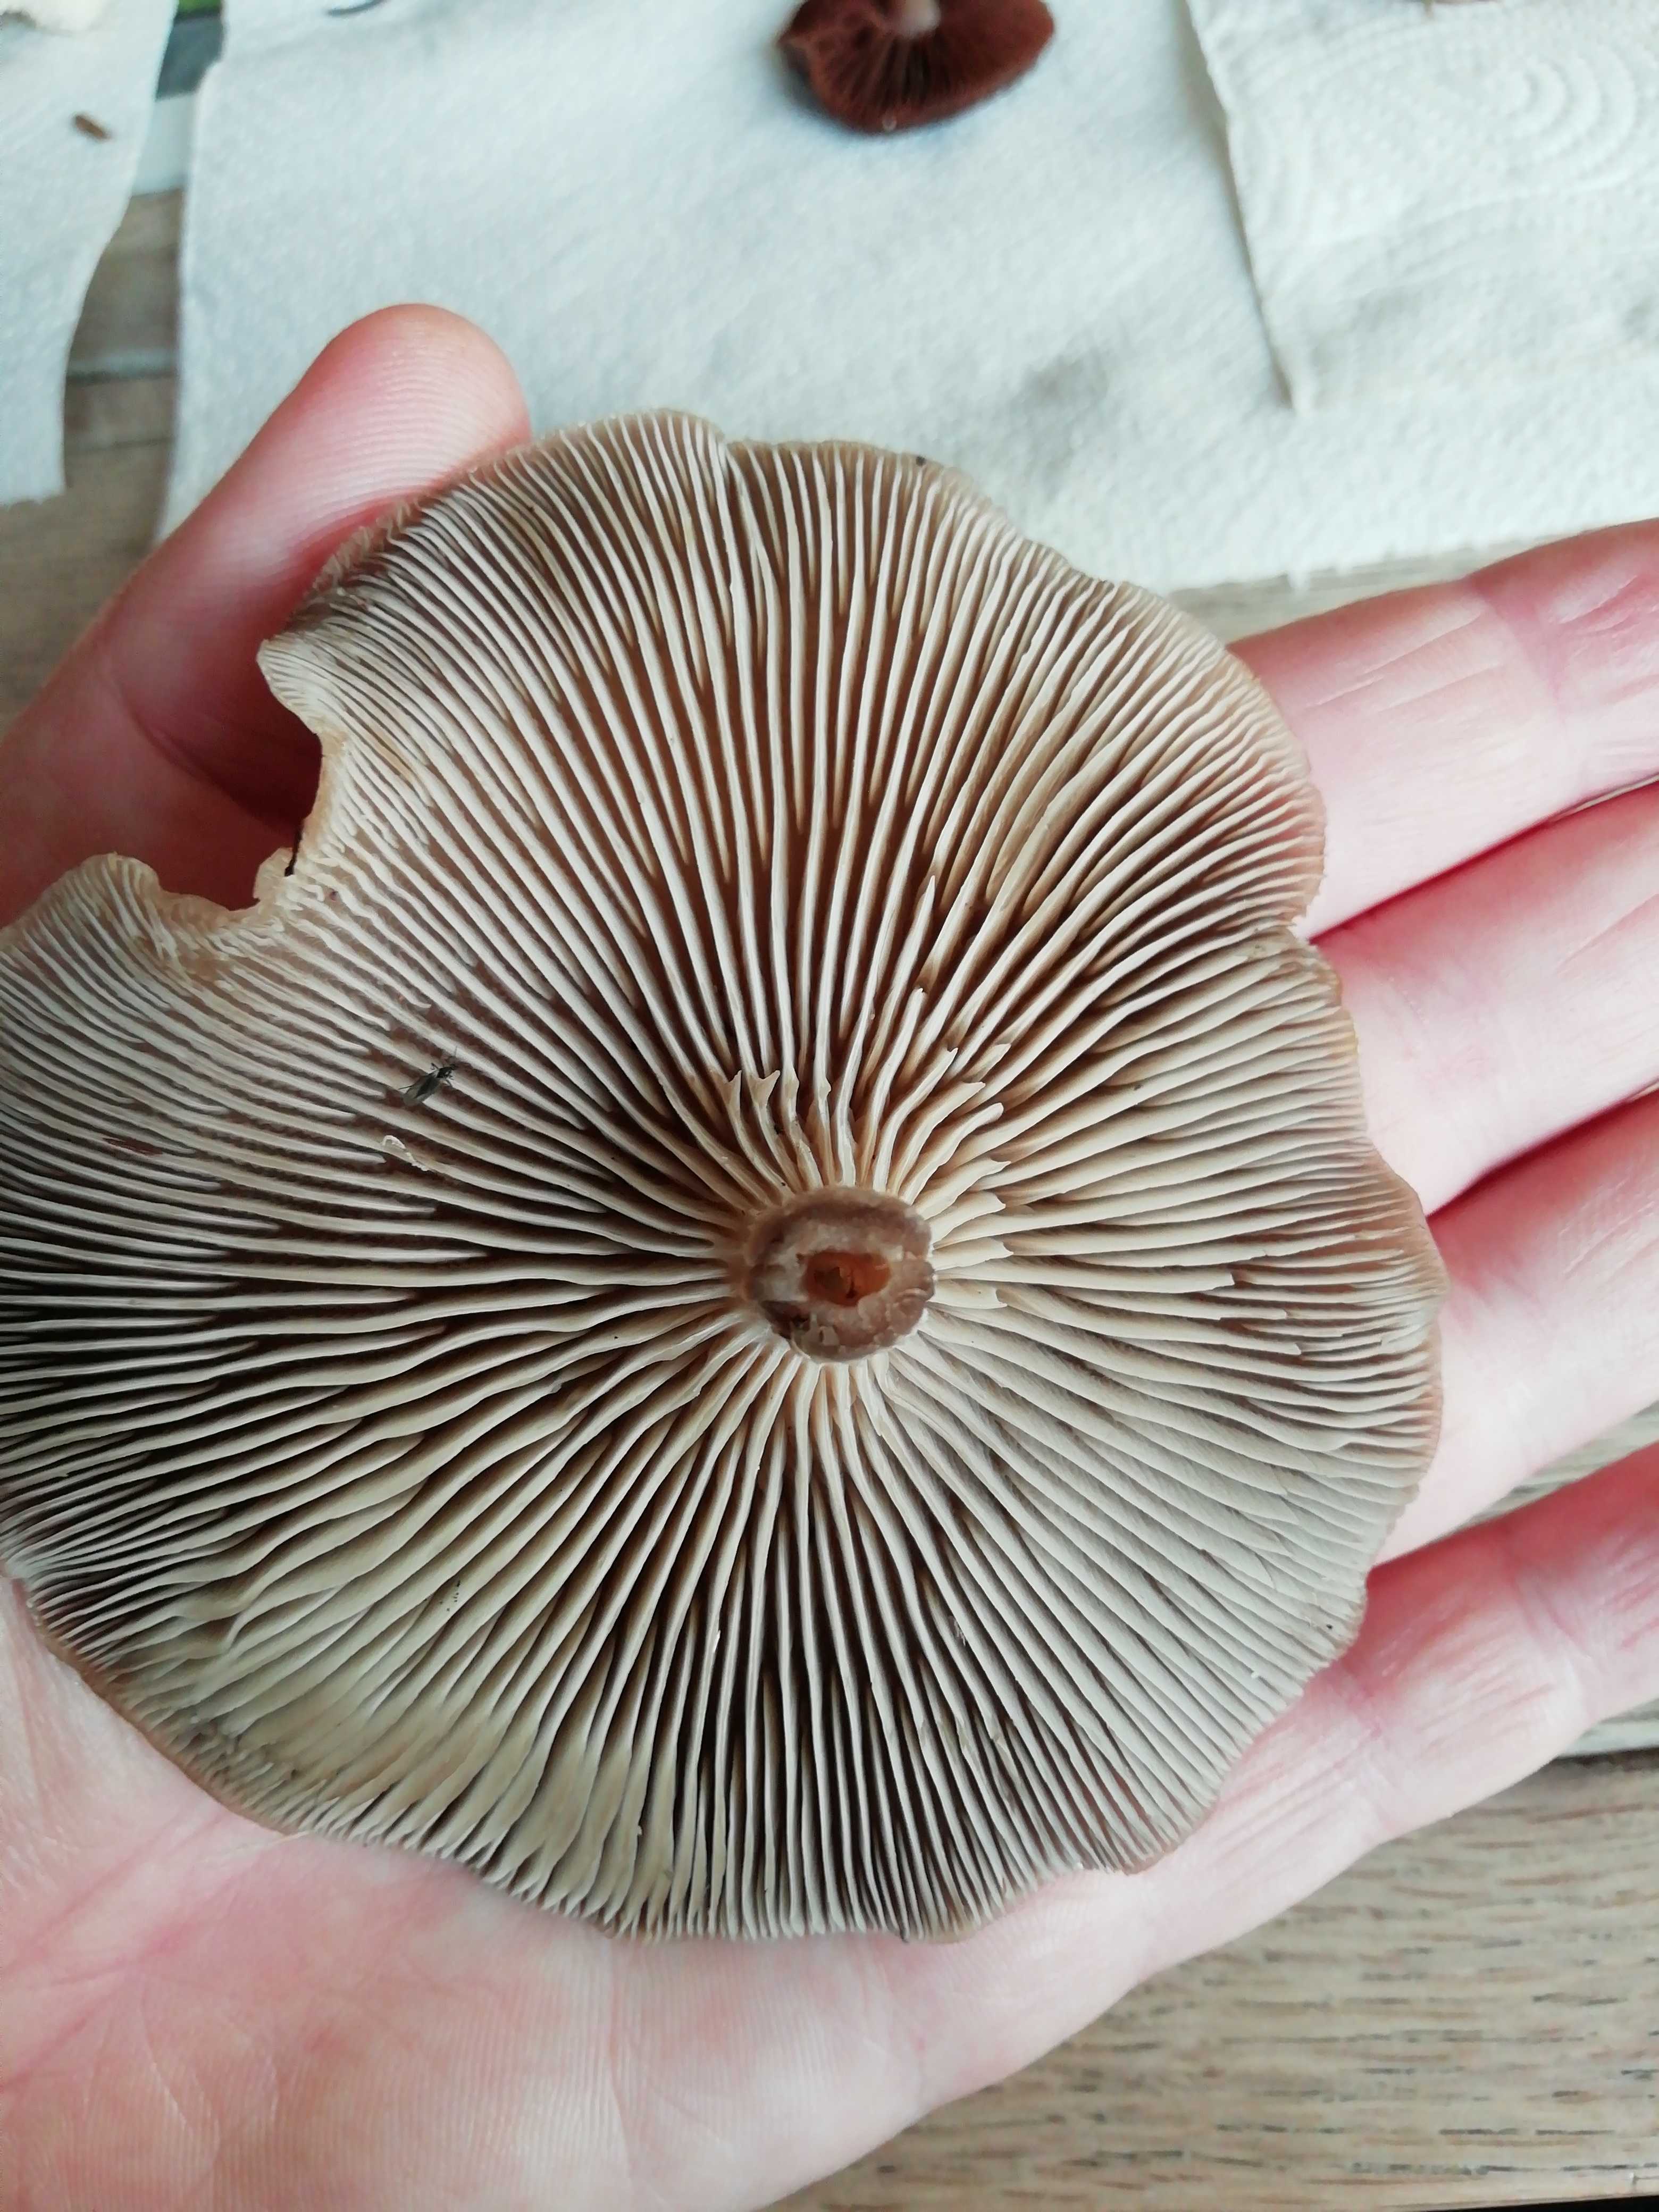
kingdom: Fungi
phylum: Basidiomycota
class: Agaricomycetes
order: Agaricales
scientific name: Agaricales
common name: champignonordenen
